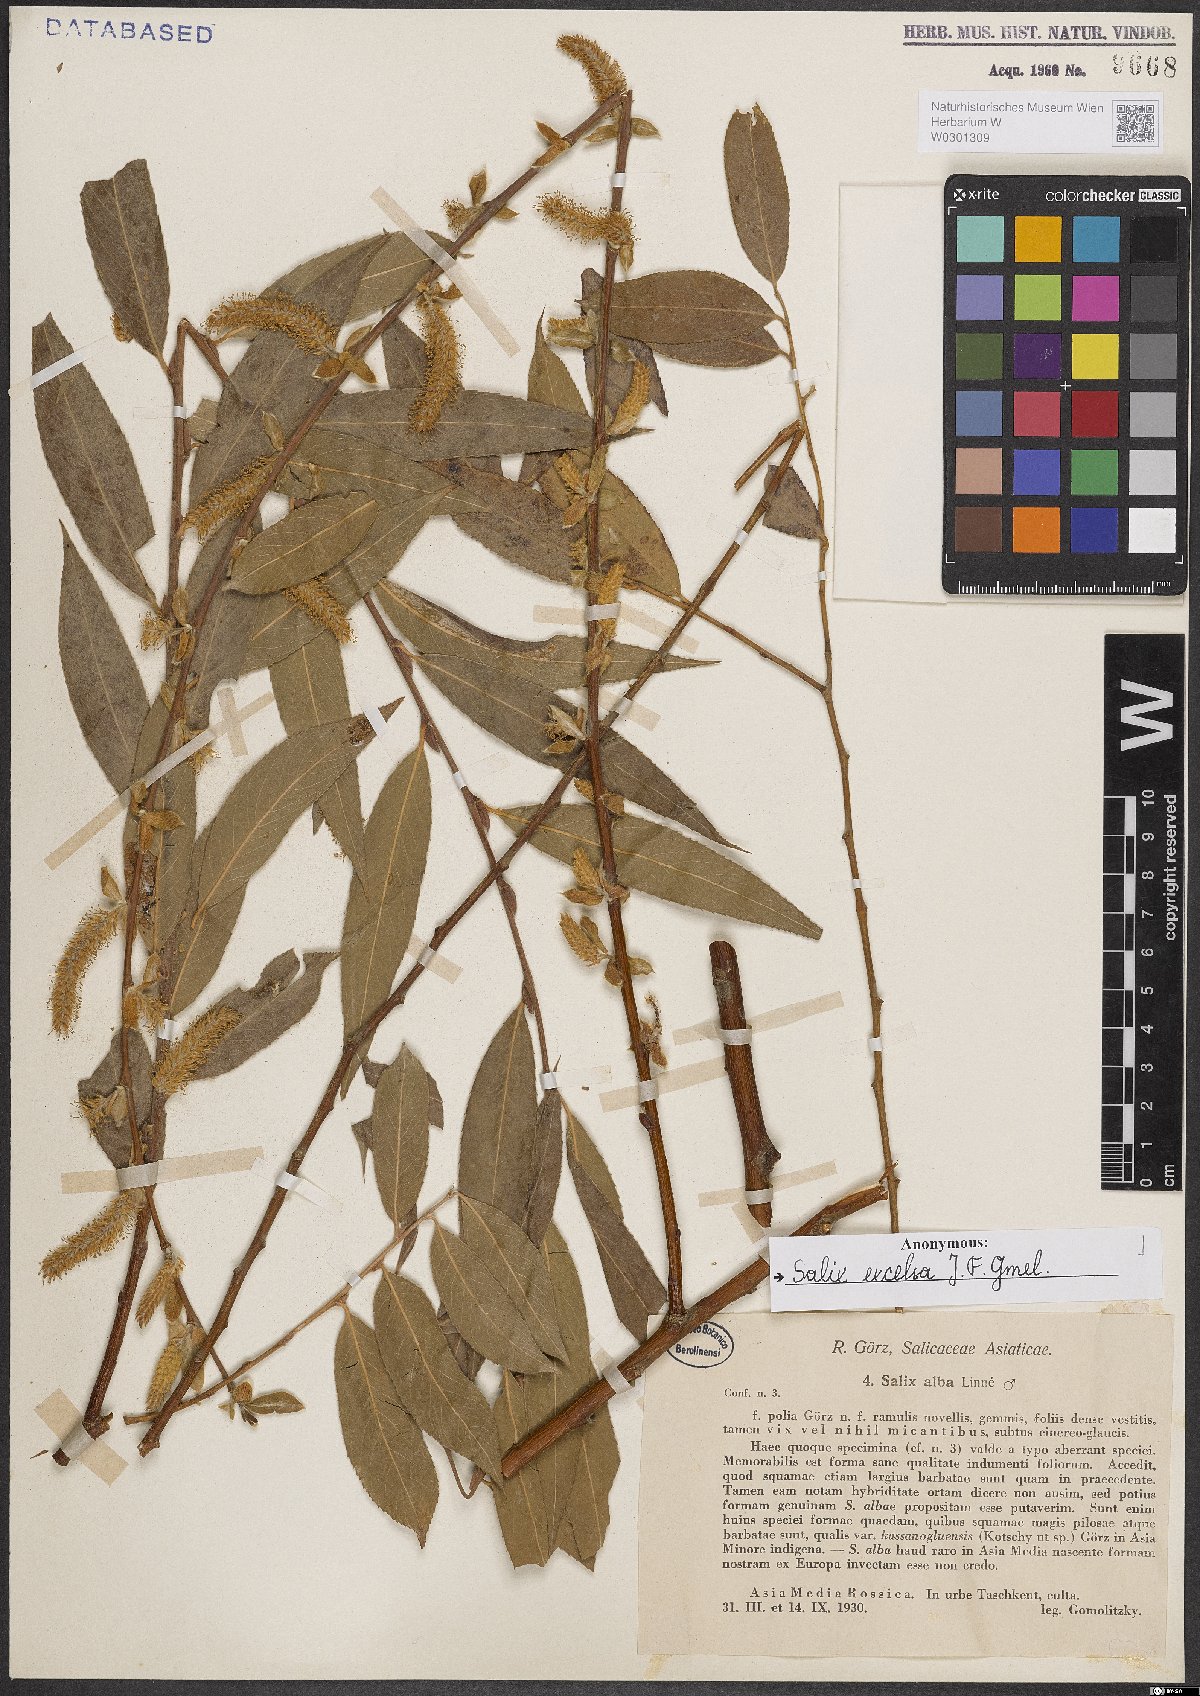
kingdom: Plantae
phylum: Tracheophyta
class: Magnoliopsida
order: Malpighiales
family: Salicaceae
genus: Salix
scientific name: Salix excelsa
